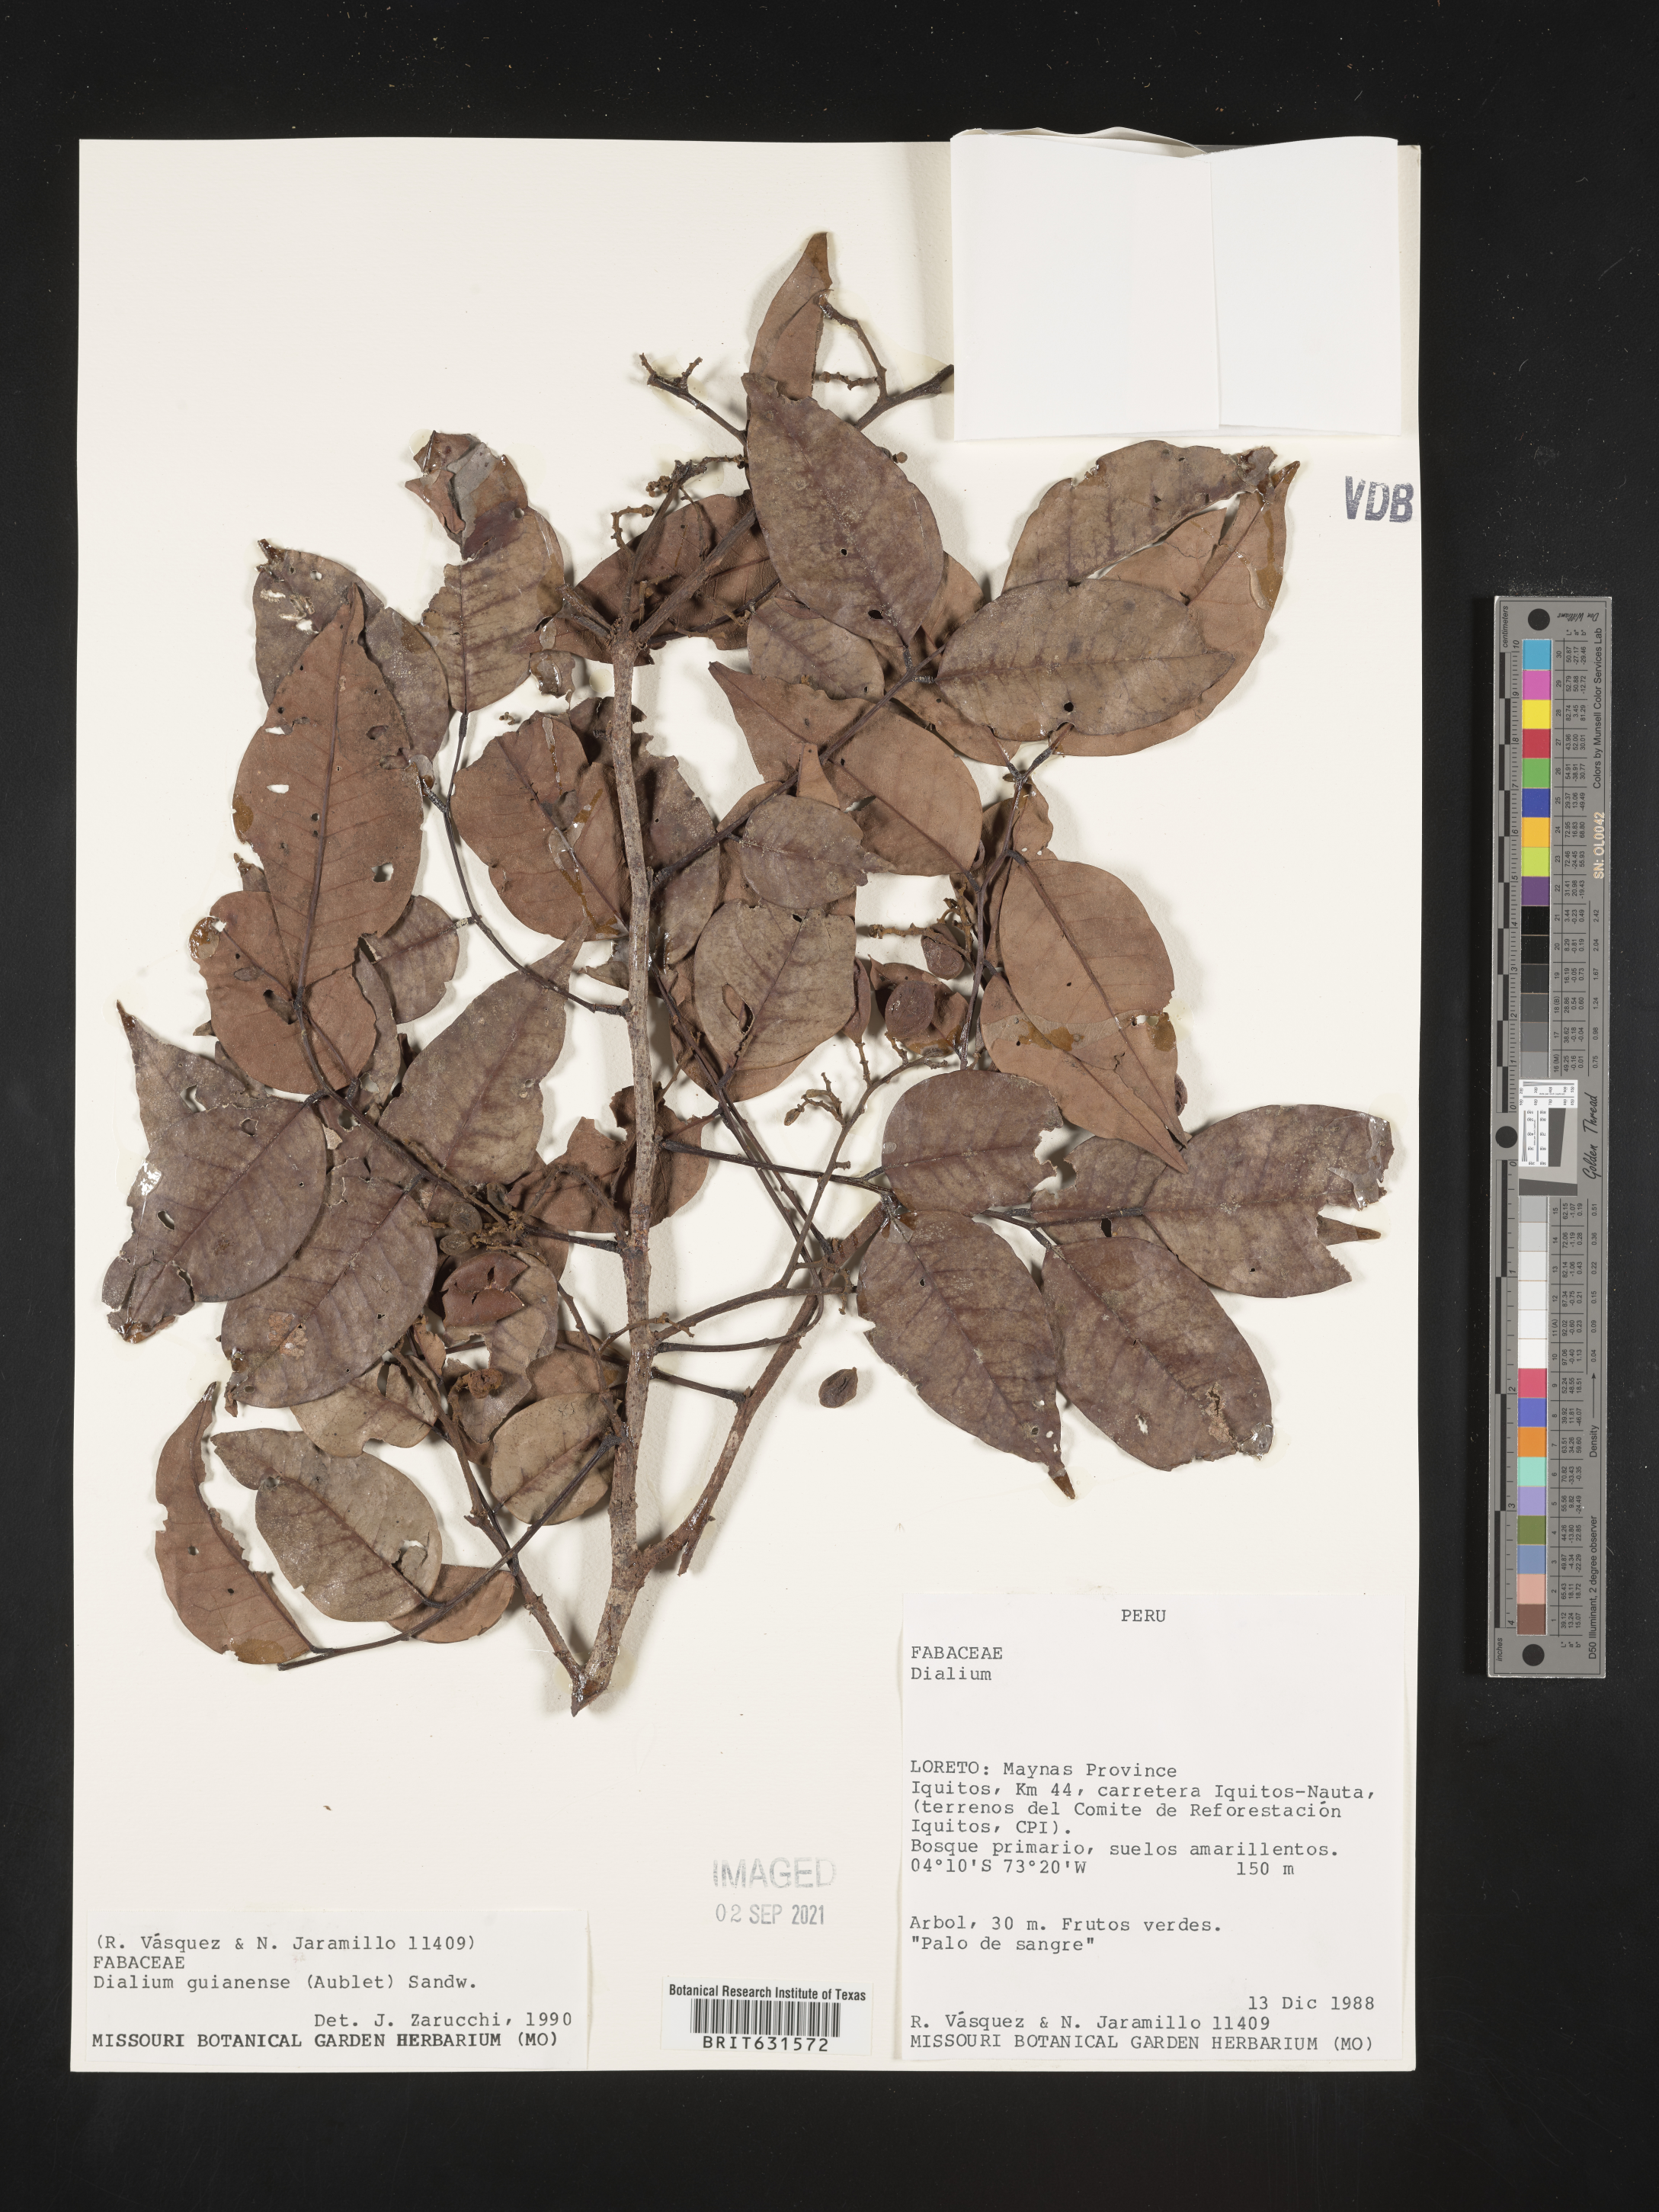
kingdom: Plantae
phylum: Tracheophyta
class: Magnoliopsida
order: Fabales
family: Fabaceae
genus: Dialium
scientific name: Dialium guianense
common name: Ironwood
